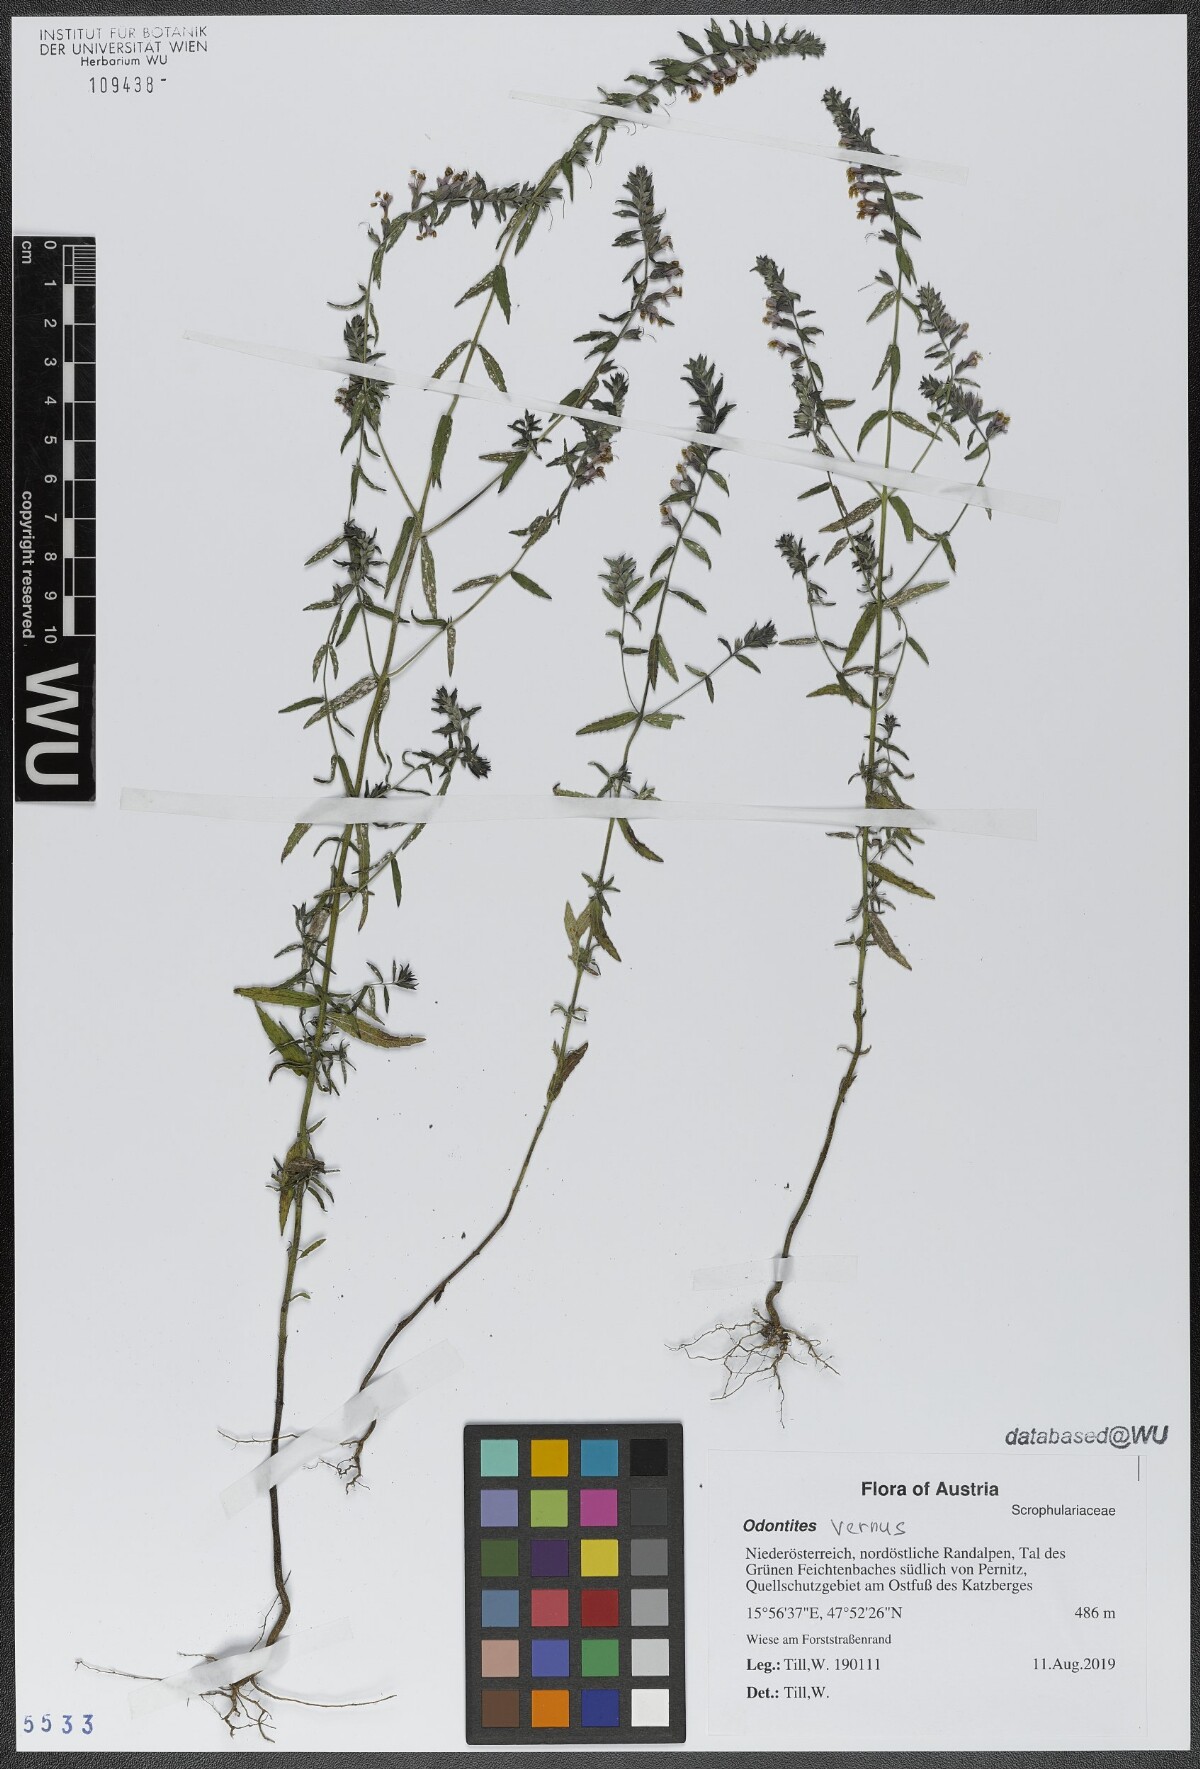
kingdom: Plantae
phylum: Tracheophyta
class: Magnoliopsida
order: Lamiales
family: Orobanchaceae
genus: Odontites
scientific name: Odontites vernus
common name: Red bartsia
